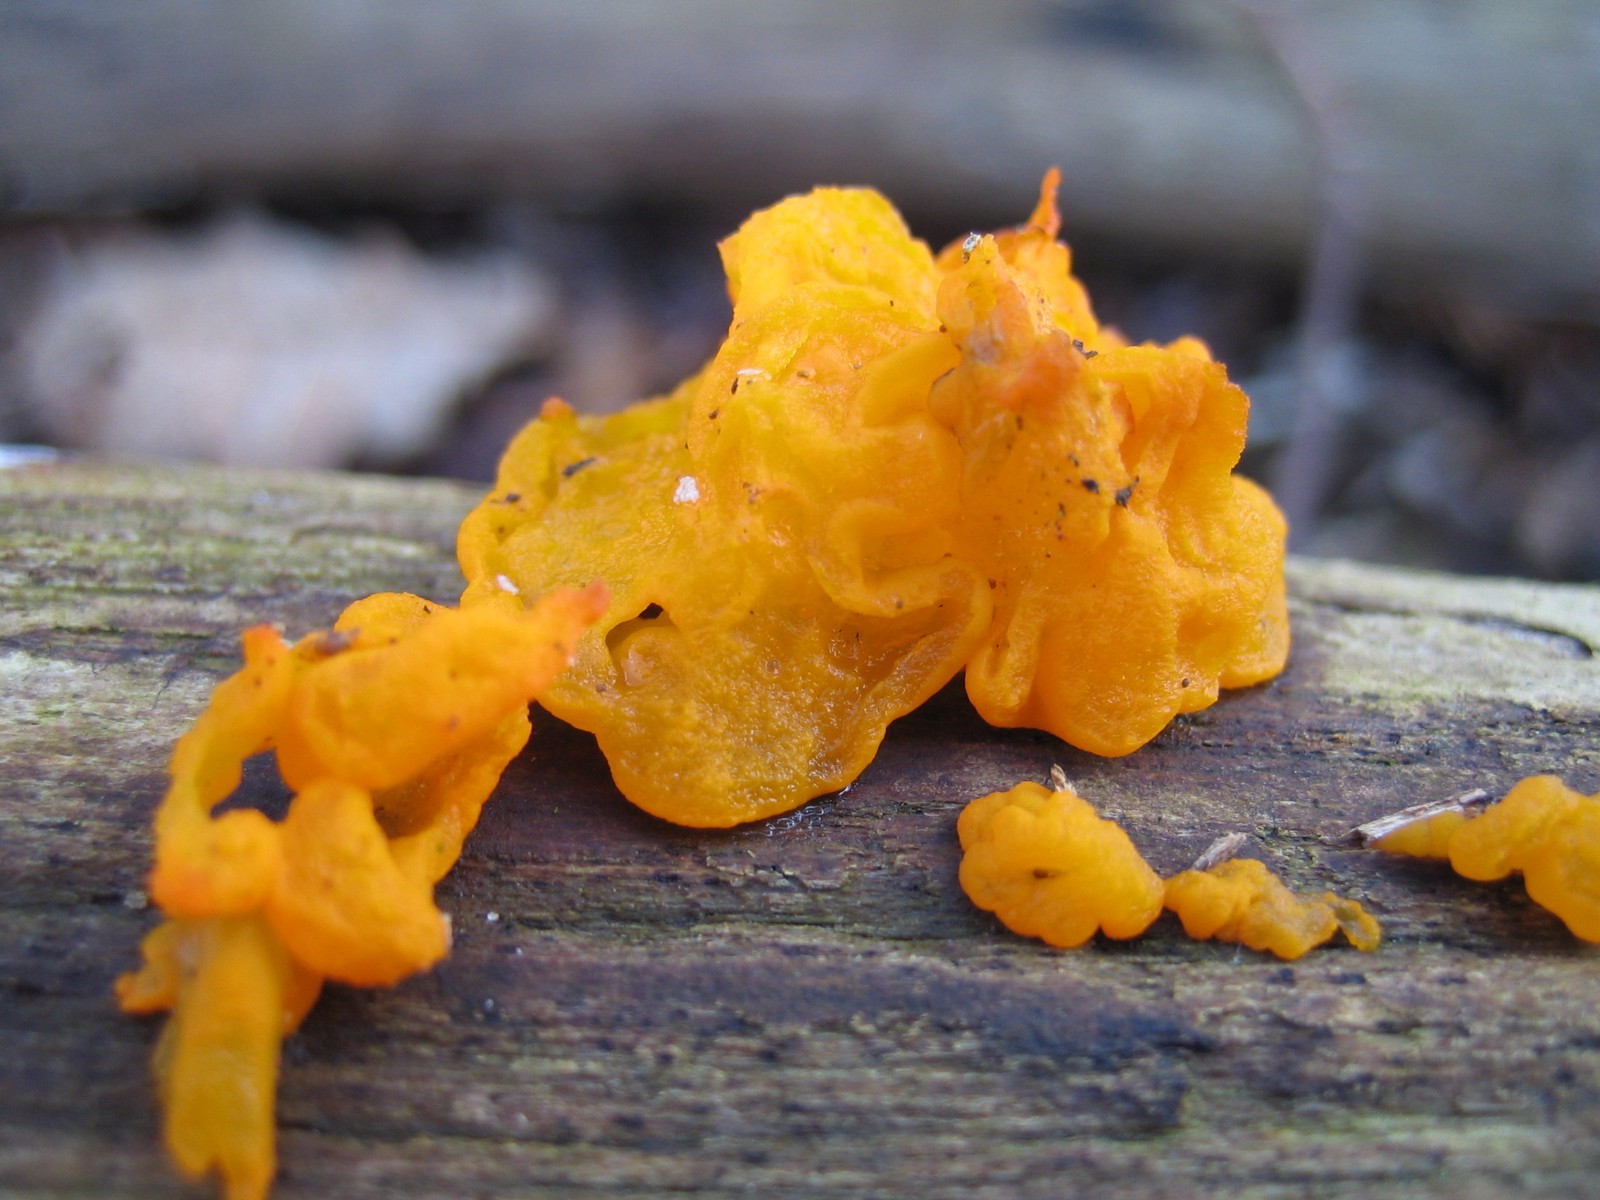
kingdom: Fungi
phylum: Basidiomycota
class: Tremellomycetes
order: Tremellales
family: Tremellaceae
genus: Tremella
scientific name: Tremella mesenterica
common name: gul bævresvamp
